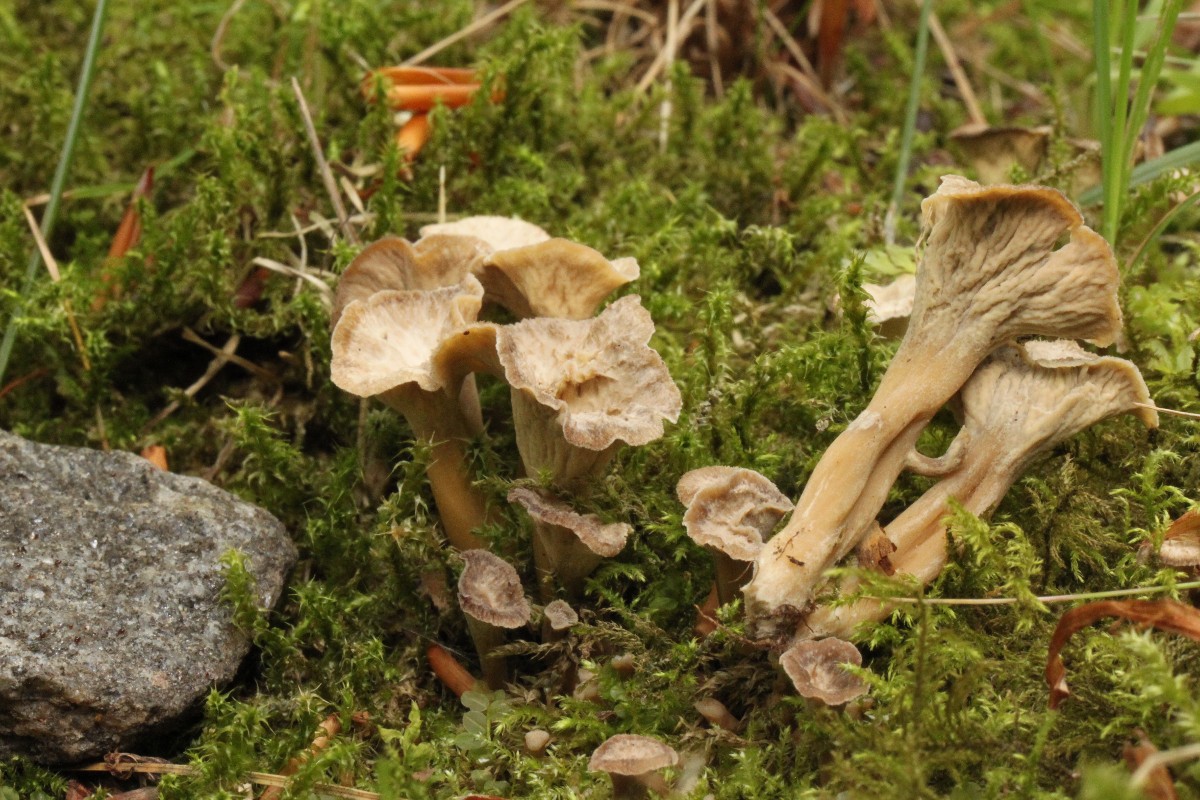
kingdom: Fungi
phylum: Basidiomycota
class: Agaricomycetes
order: Cantharellales
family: Hydnaceae
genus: Craterellus
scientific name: Craterellus undulatus
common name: liden kantarel
